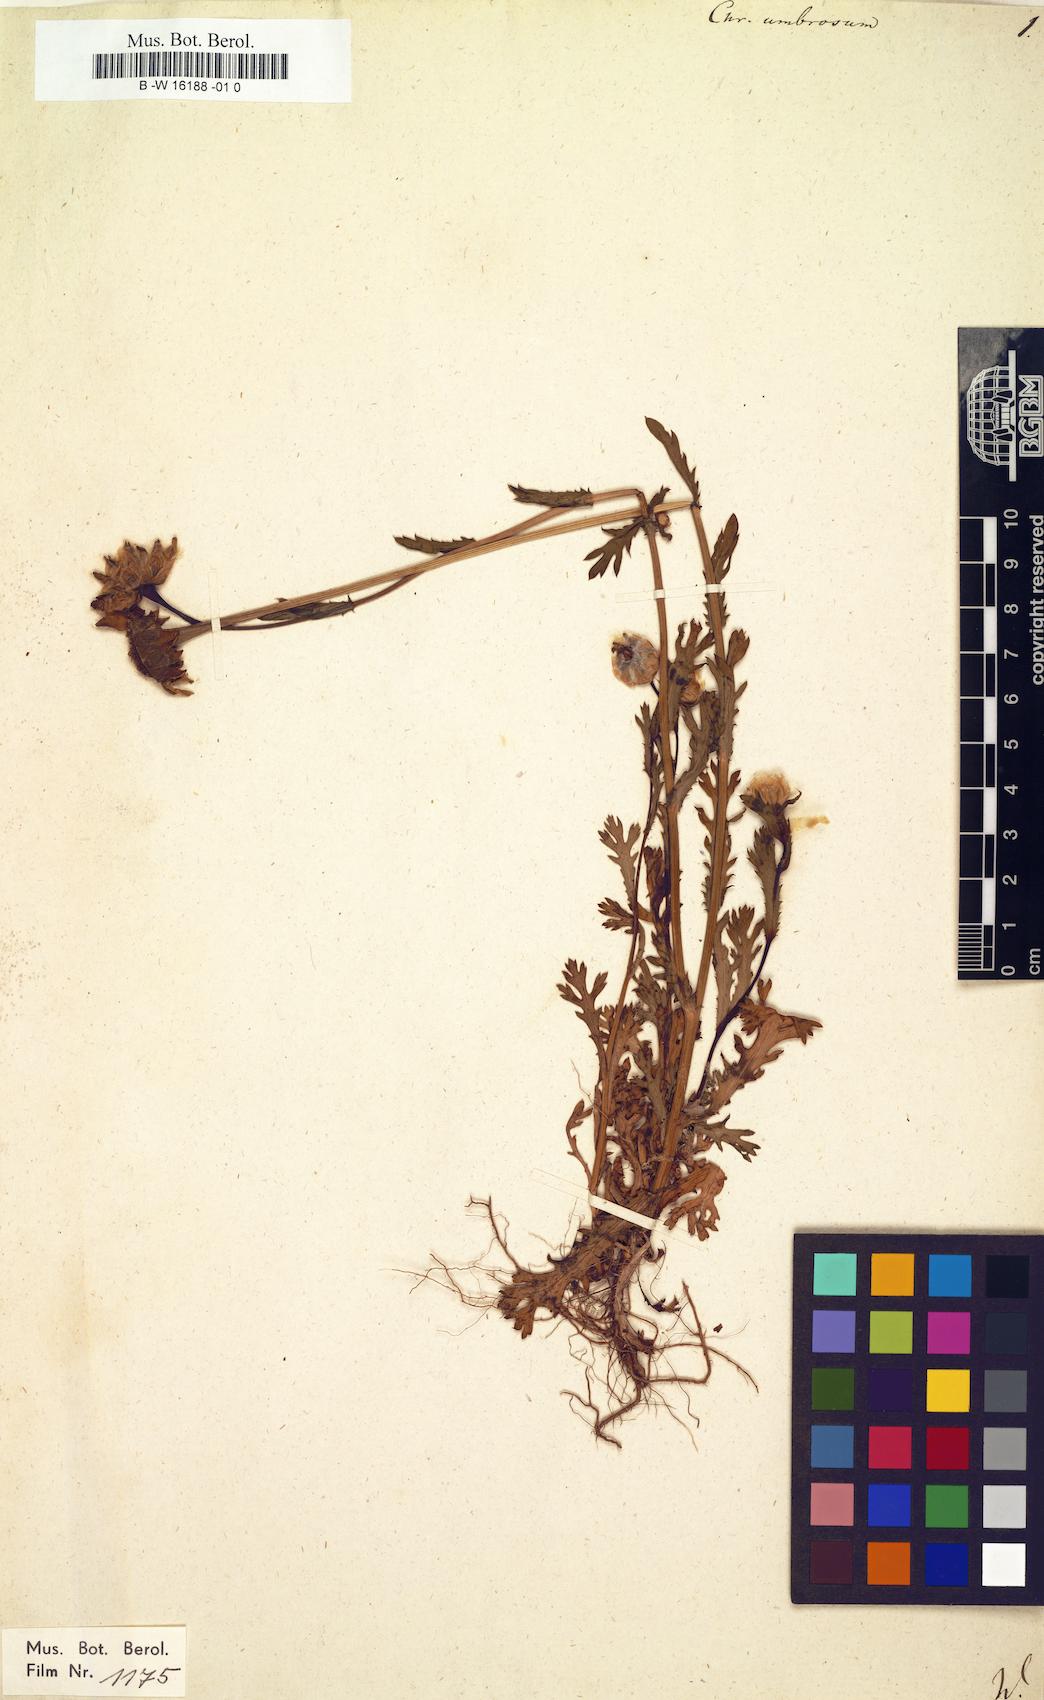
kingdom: Plantae
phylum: Tracheophyta
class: Magnoliopsida
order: Asterales
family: Asteraceae
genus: Glebionis
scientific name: Glebionis segetum
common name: Corndaisy
